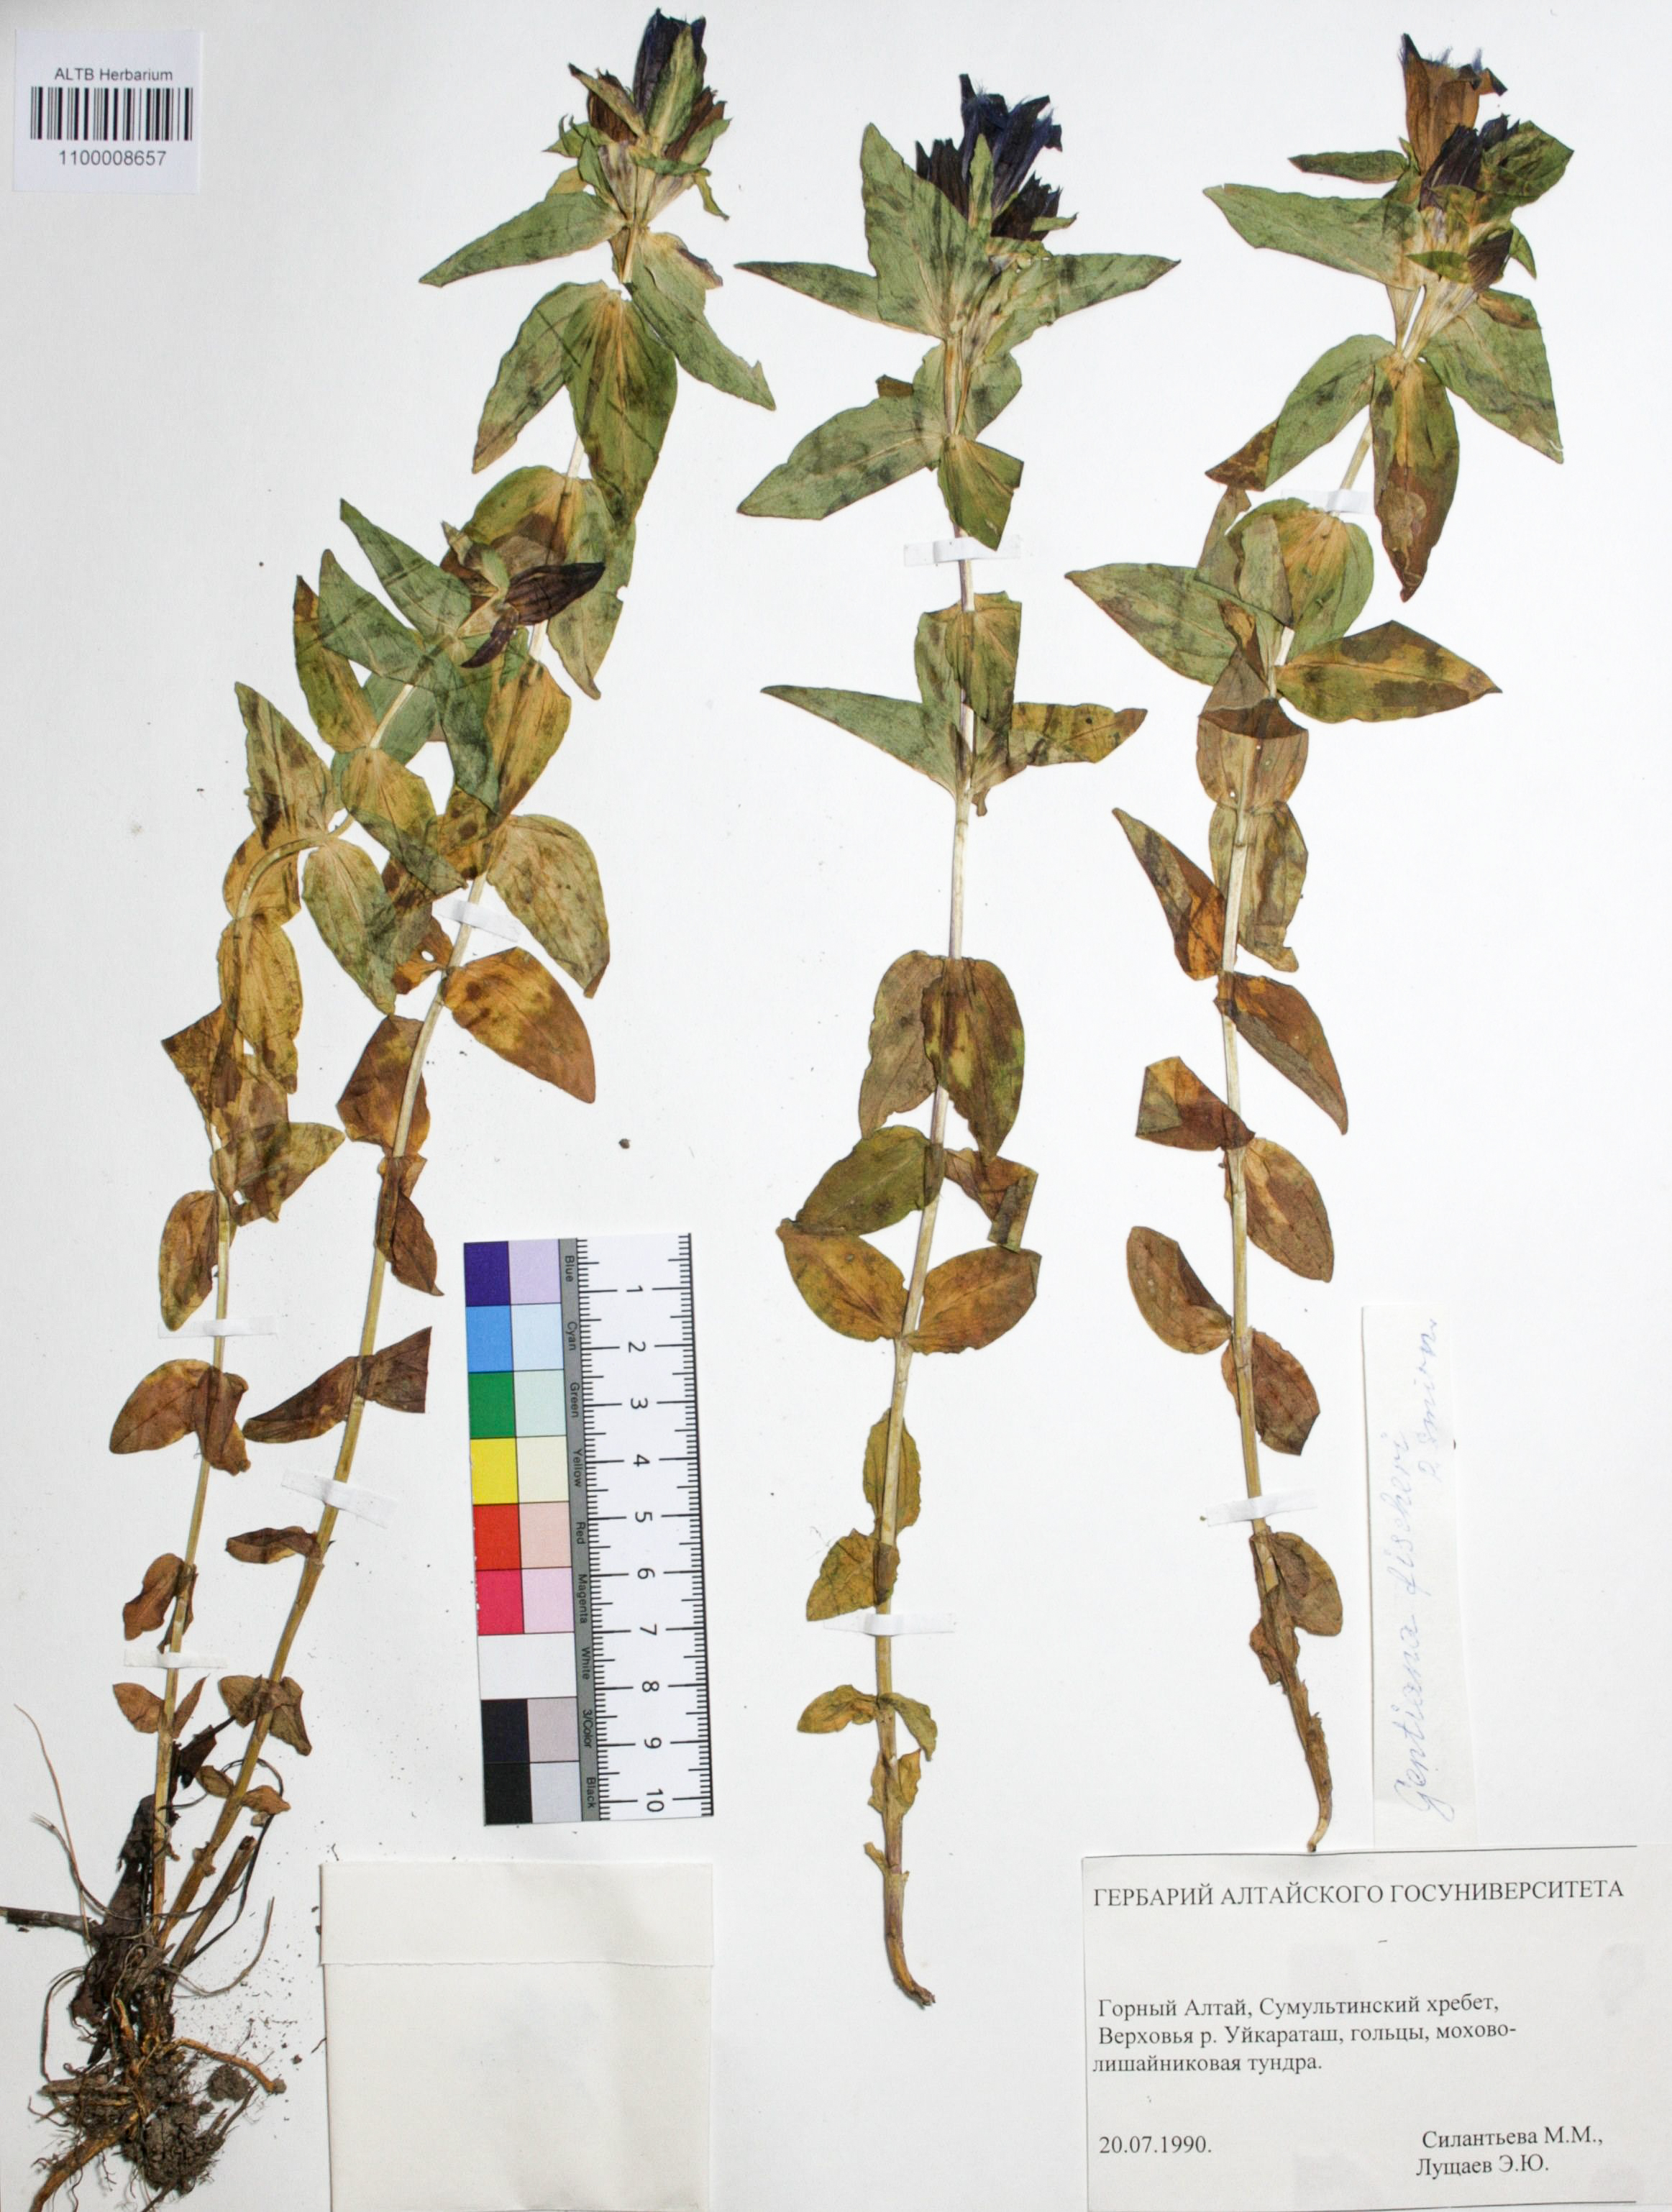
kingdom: Plantae
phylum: Tracheophyta
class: Magnoliopsida
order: Gentianales
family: Gentianaceae
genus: Gentiana
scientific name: Gentiana dschungarica
